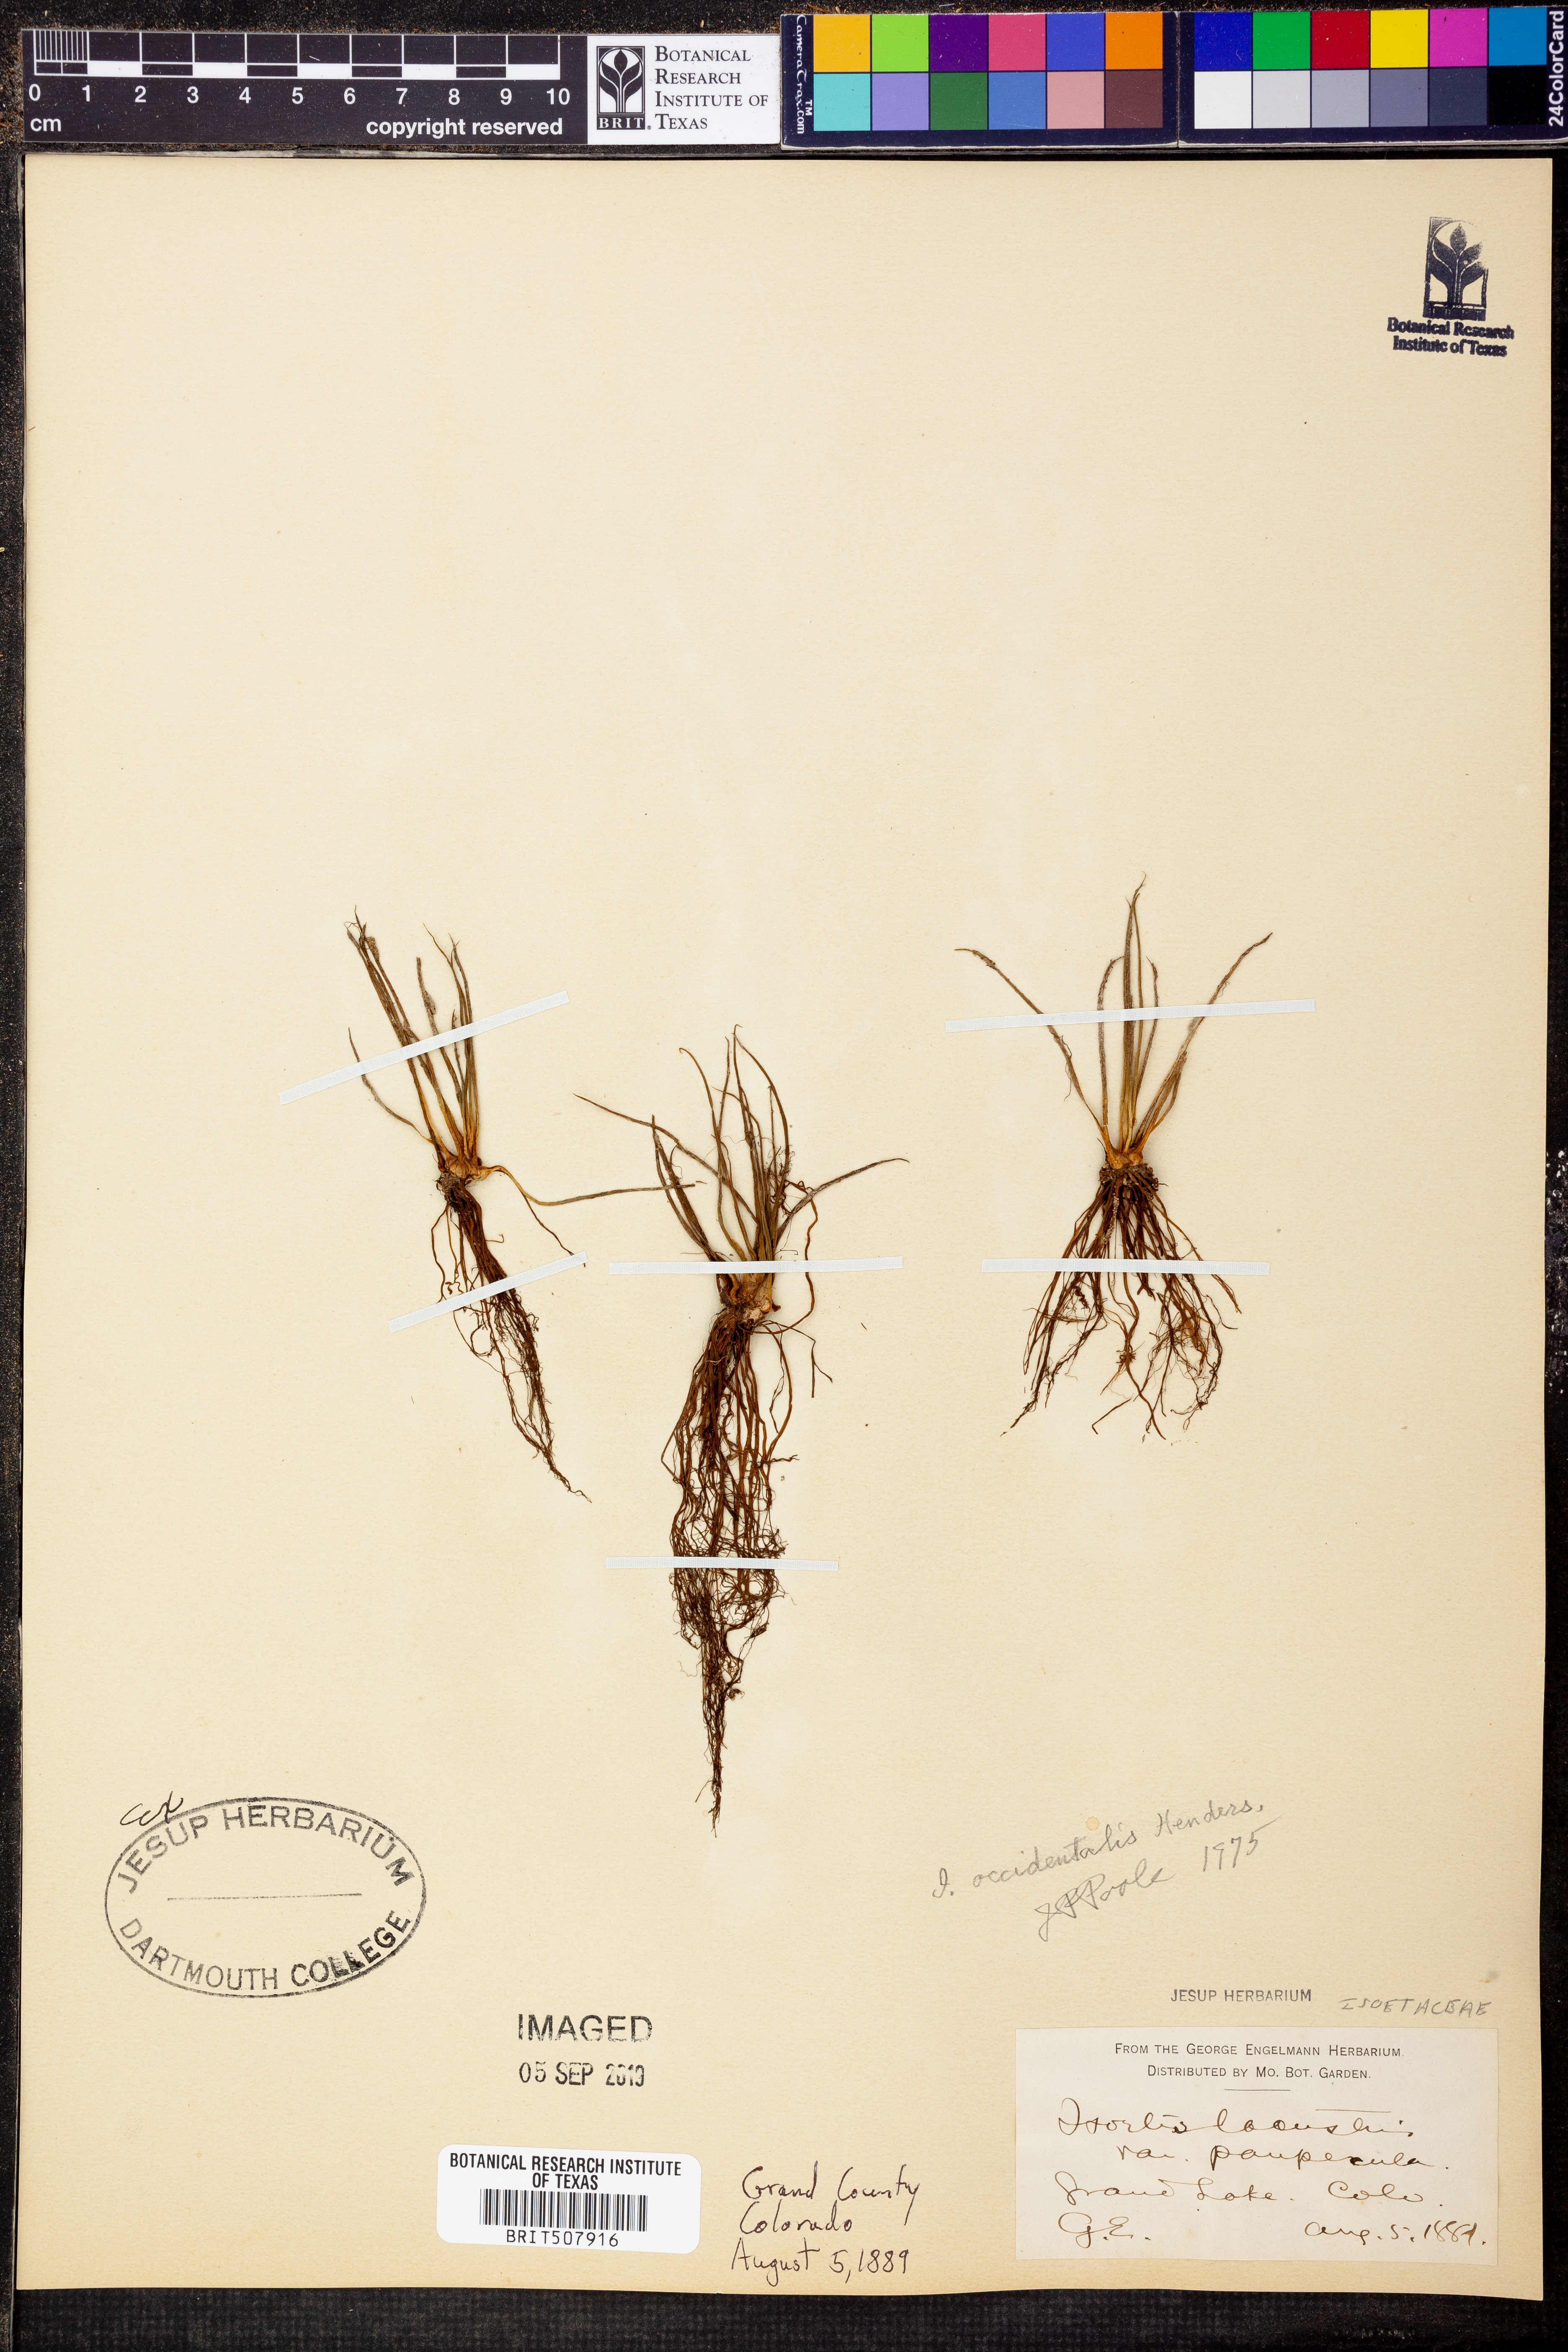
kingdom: Plantae
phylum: Tracheophyta
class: Lycopodiopsida
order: Isoetales
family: Isoetaceae
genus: Isoetes
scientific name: Isoetes occidentalis
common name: Western quillwort
